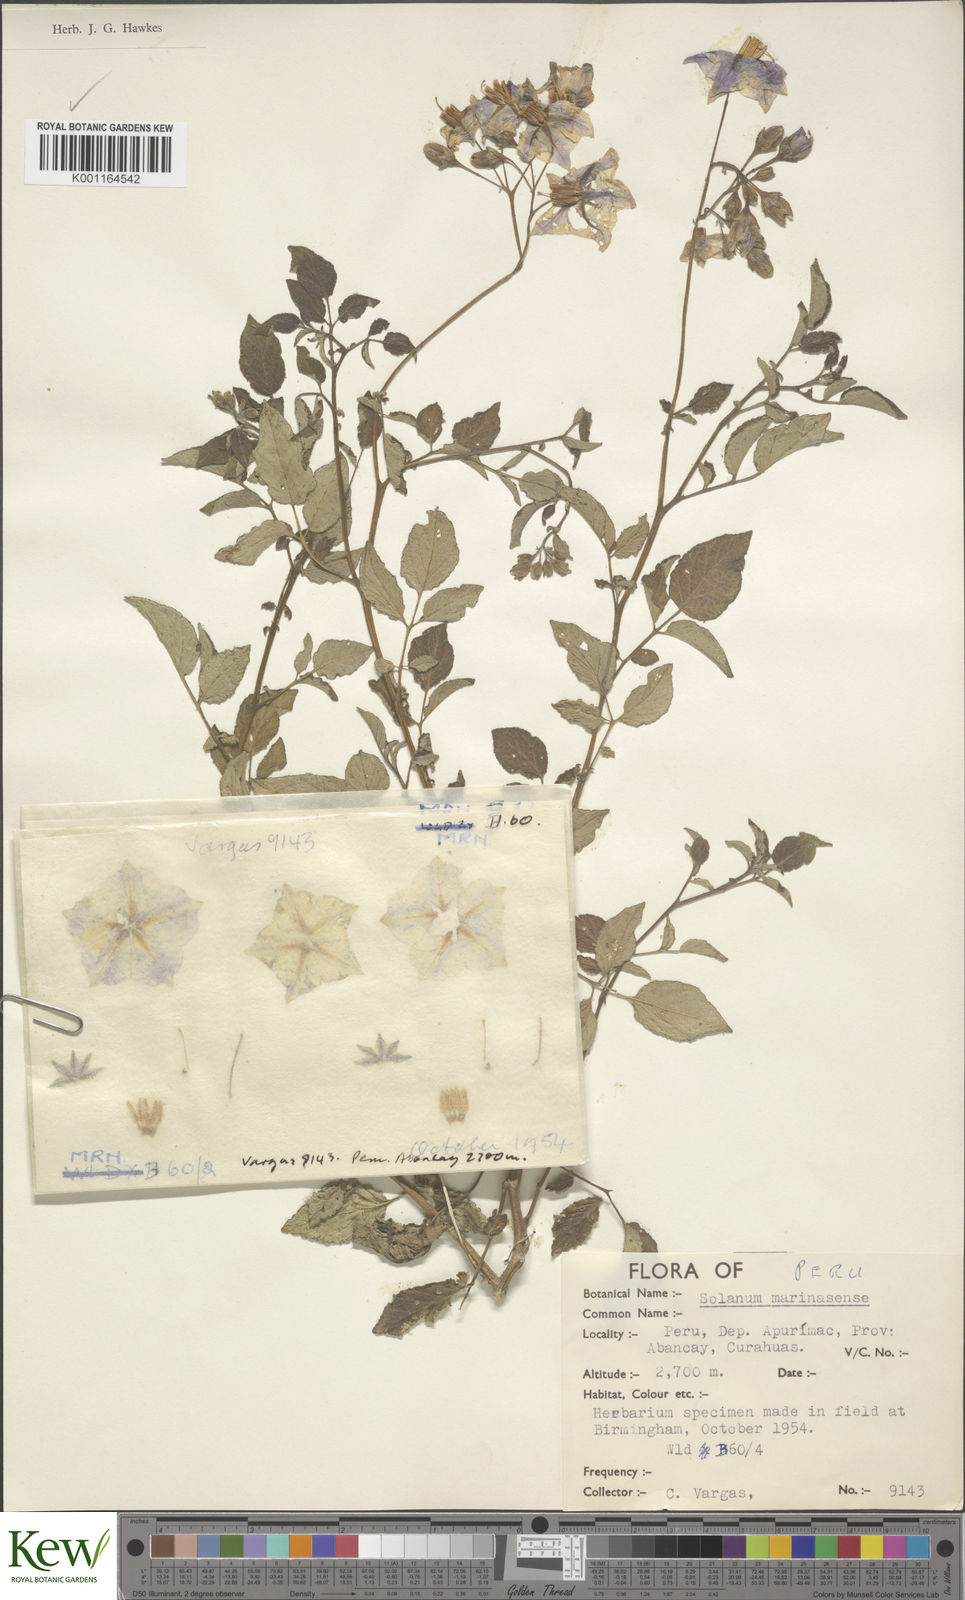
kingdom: Plantae
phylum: Tracheophyta
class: Magnoliopsida
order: Solanales
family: Solanaceae
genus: Solanum
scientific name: Solanum candolleanum
